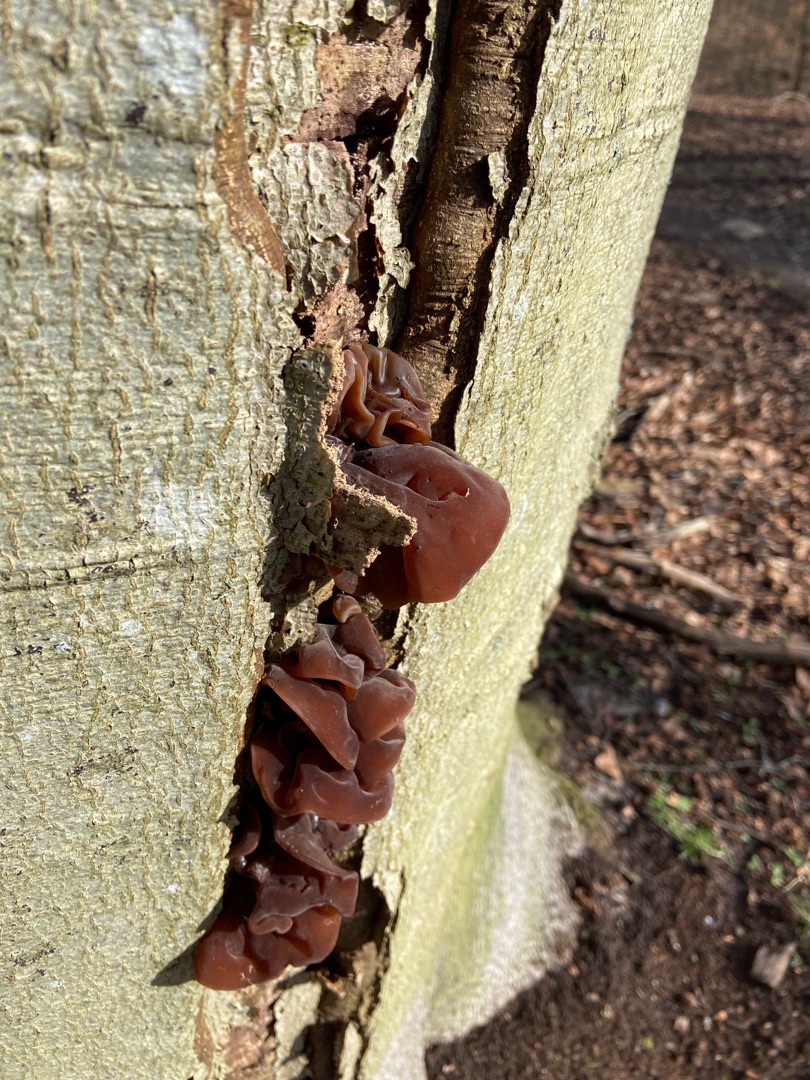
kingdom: Fungi
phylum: Basidiomycota
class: Agaricomycetes
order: Auriculariales
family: Auriculariaceae
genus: Auricularia
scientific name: Auricularia auricula-judae
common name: Almindelig judasøre
